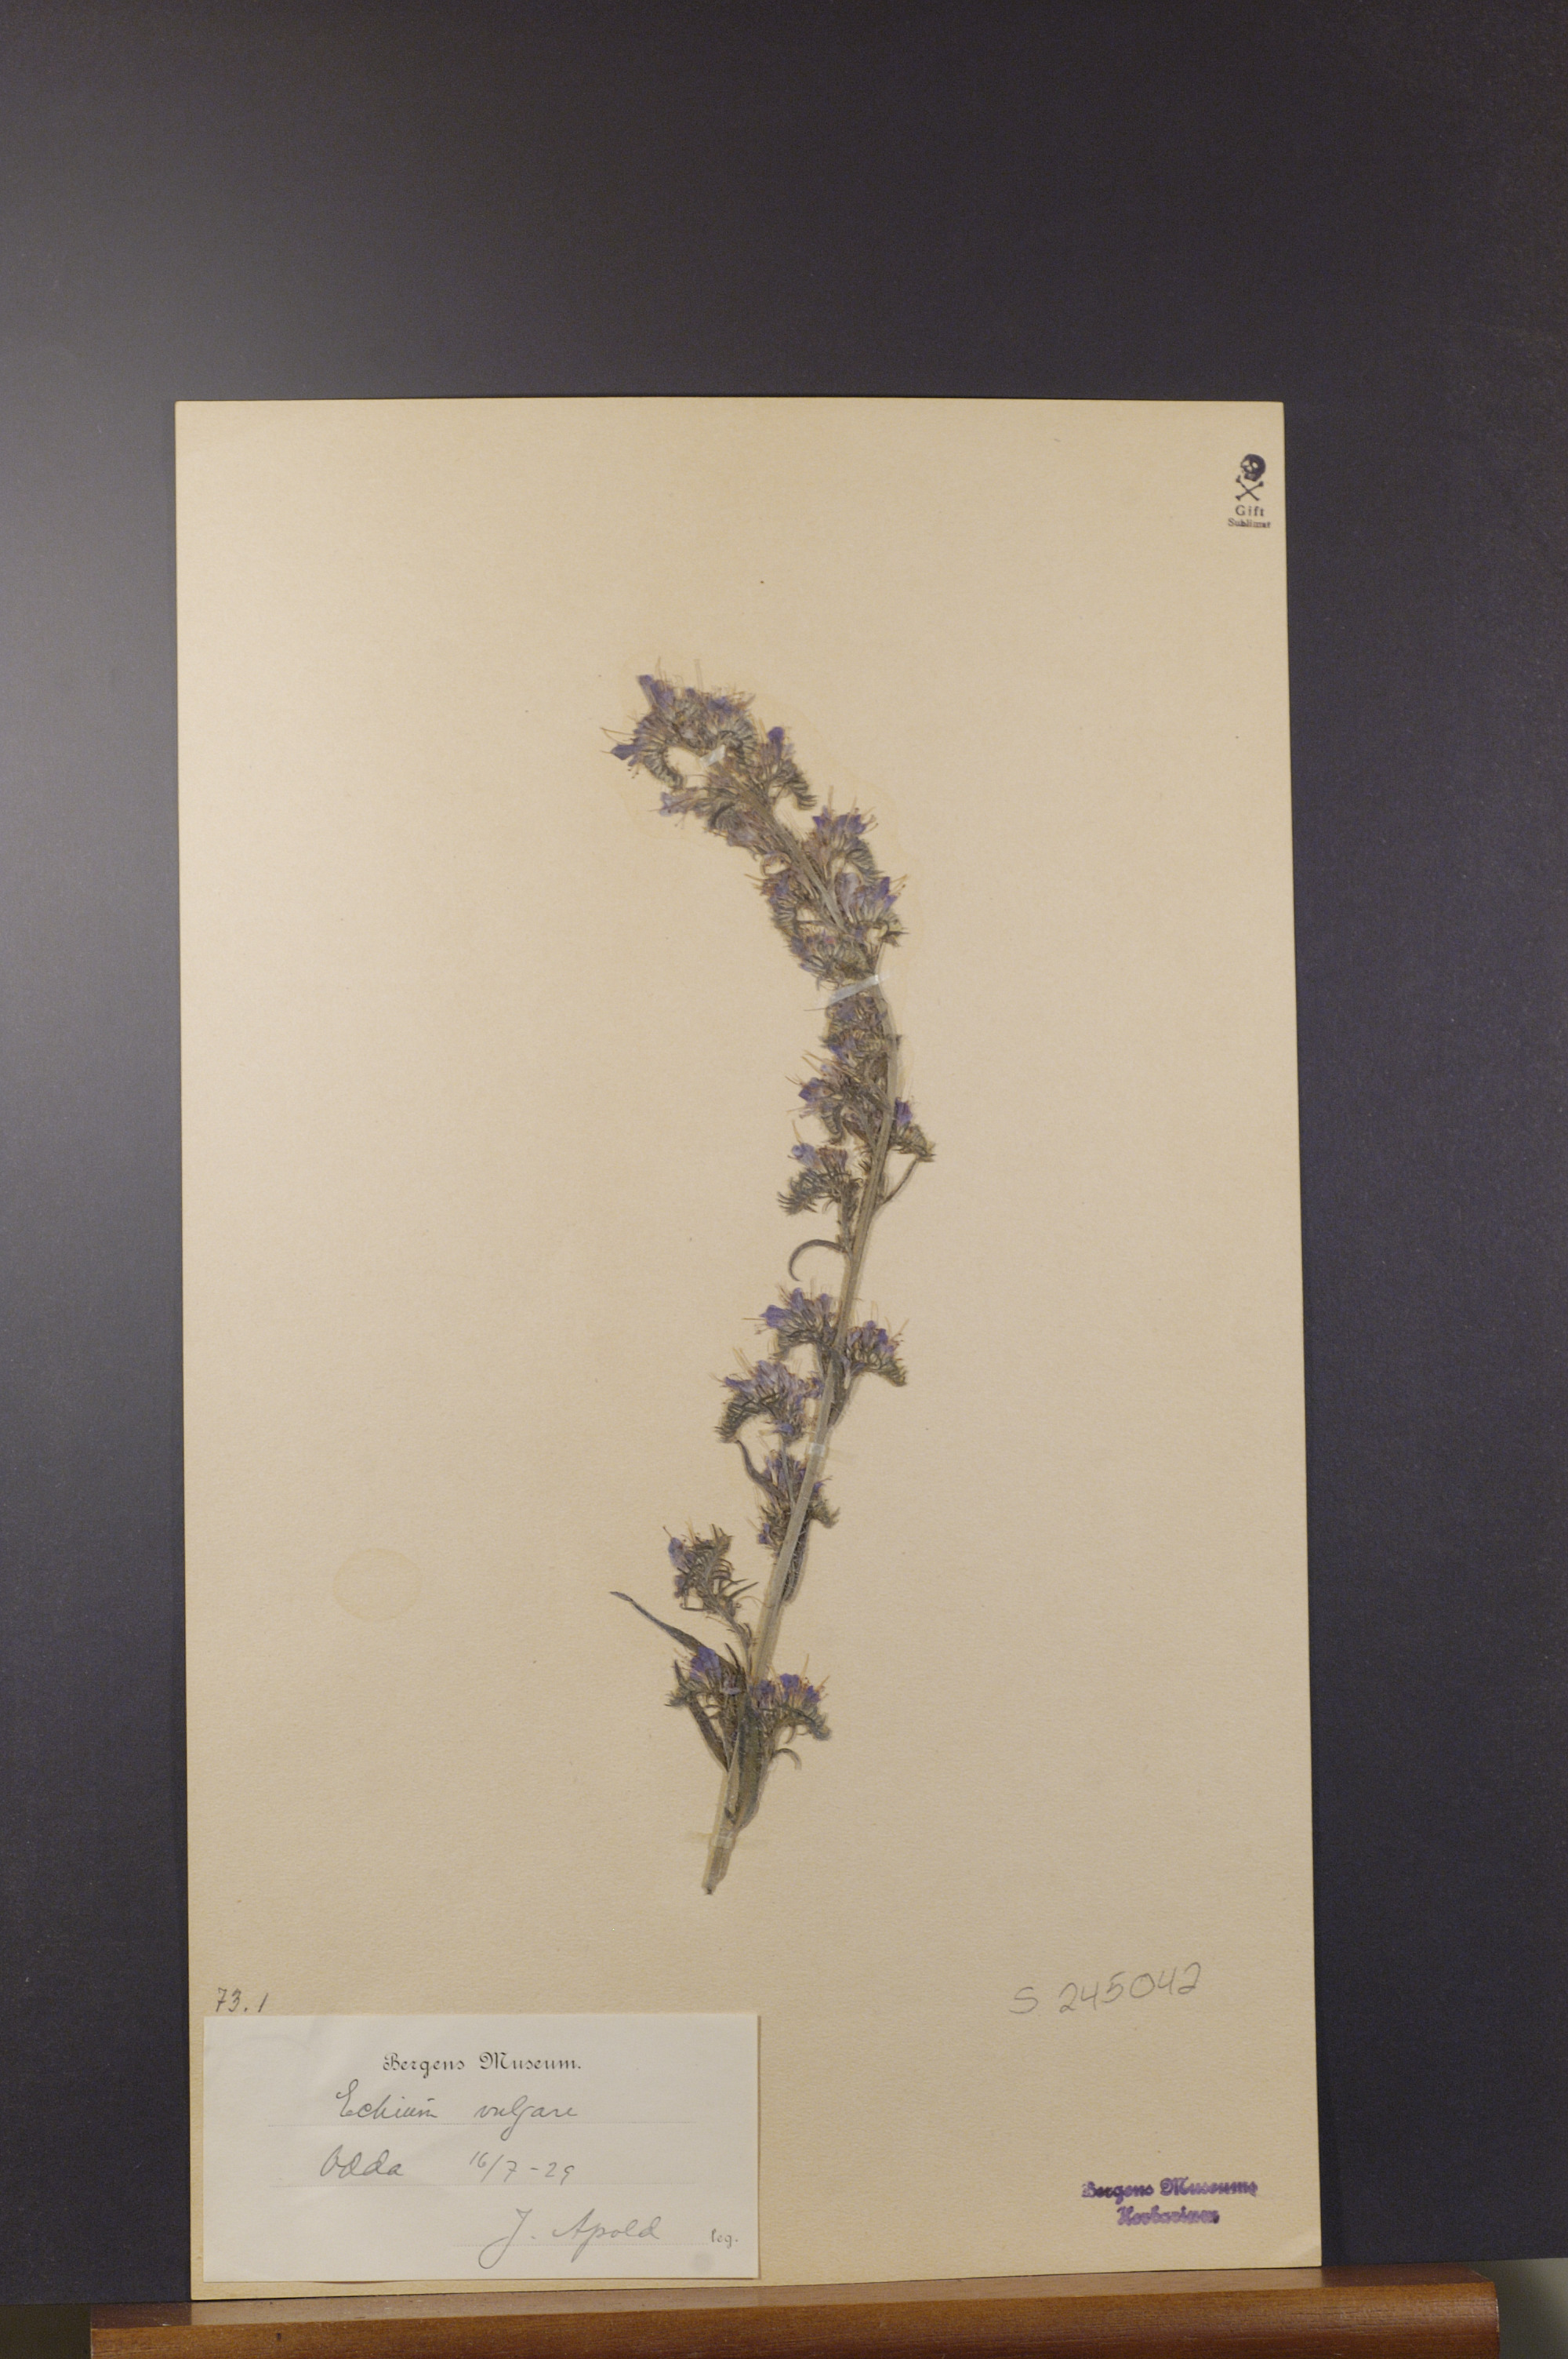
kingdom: Plantae
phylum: Tracheophyta
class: Magnoliopsida
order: Boraginales
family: Boraginaceae
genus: Echium
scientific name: Echium vulgare
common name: Common viper's bugloss
